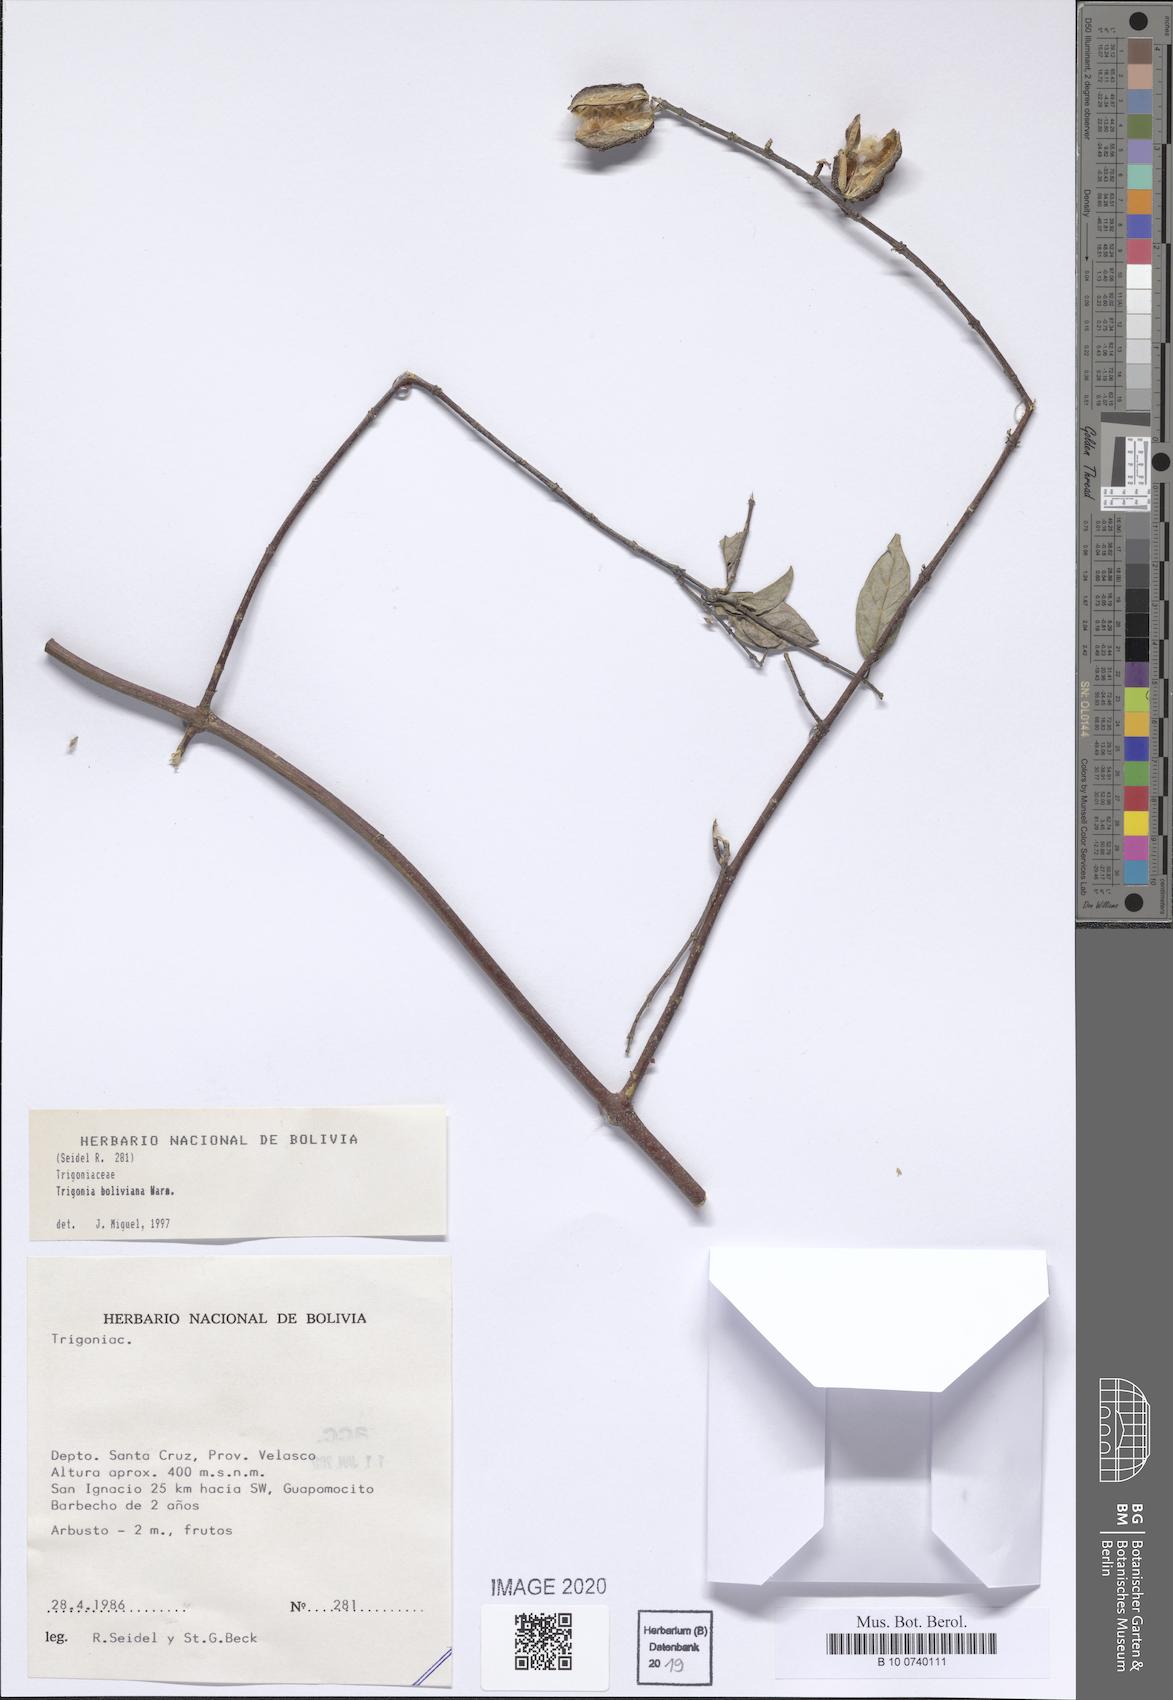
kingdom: Plantae
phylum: Tracheophyta
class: Magnoliopsida
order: Malpighiales
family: Trigoniaceae
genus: Trigonia
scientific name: Trigonia boliviana
